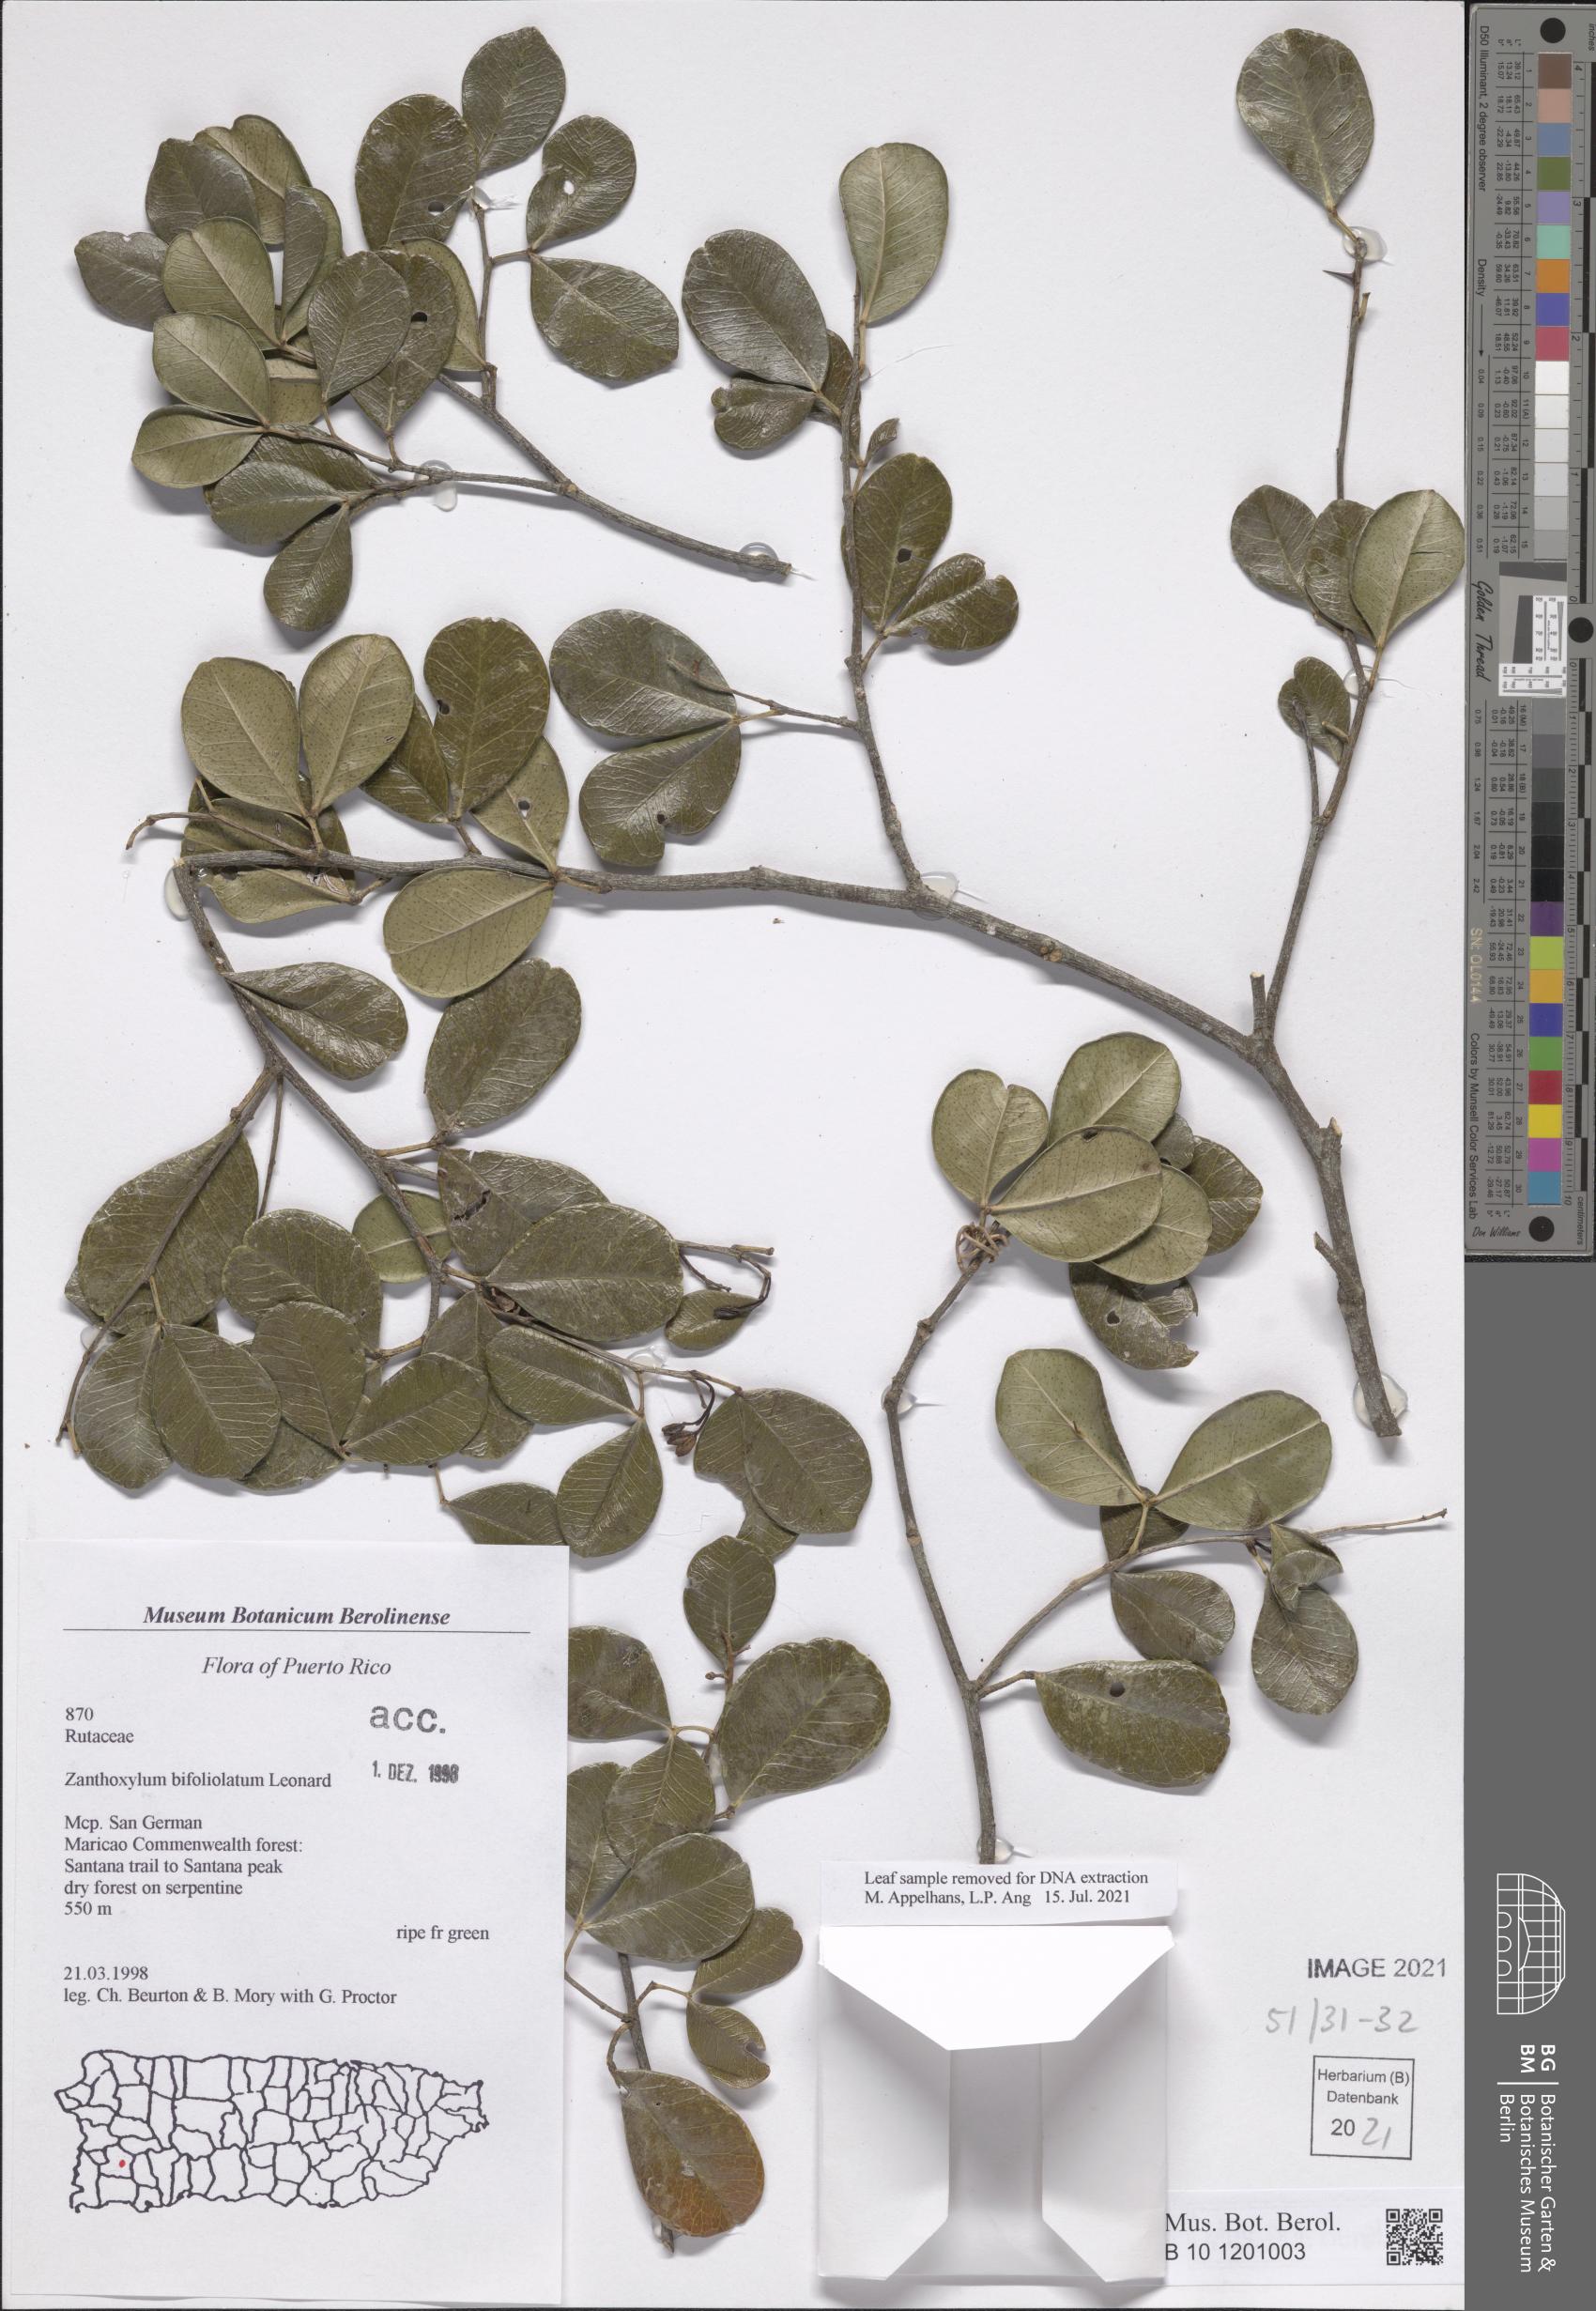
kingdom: Plantae
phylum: Tracheophyta
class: Magnoliopsida
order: Sapindales
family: Rutaceae
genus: Zanthoxylum
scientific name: Zanthoxylum bifoliolatum
